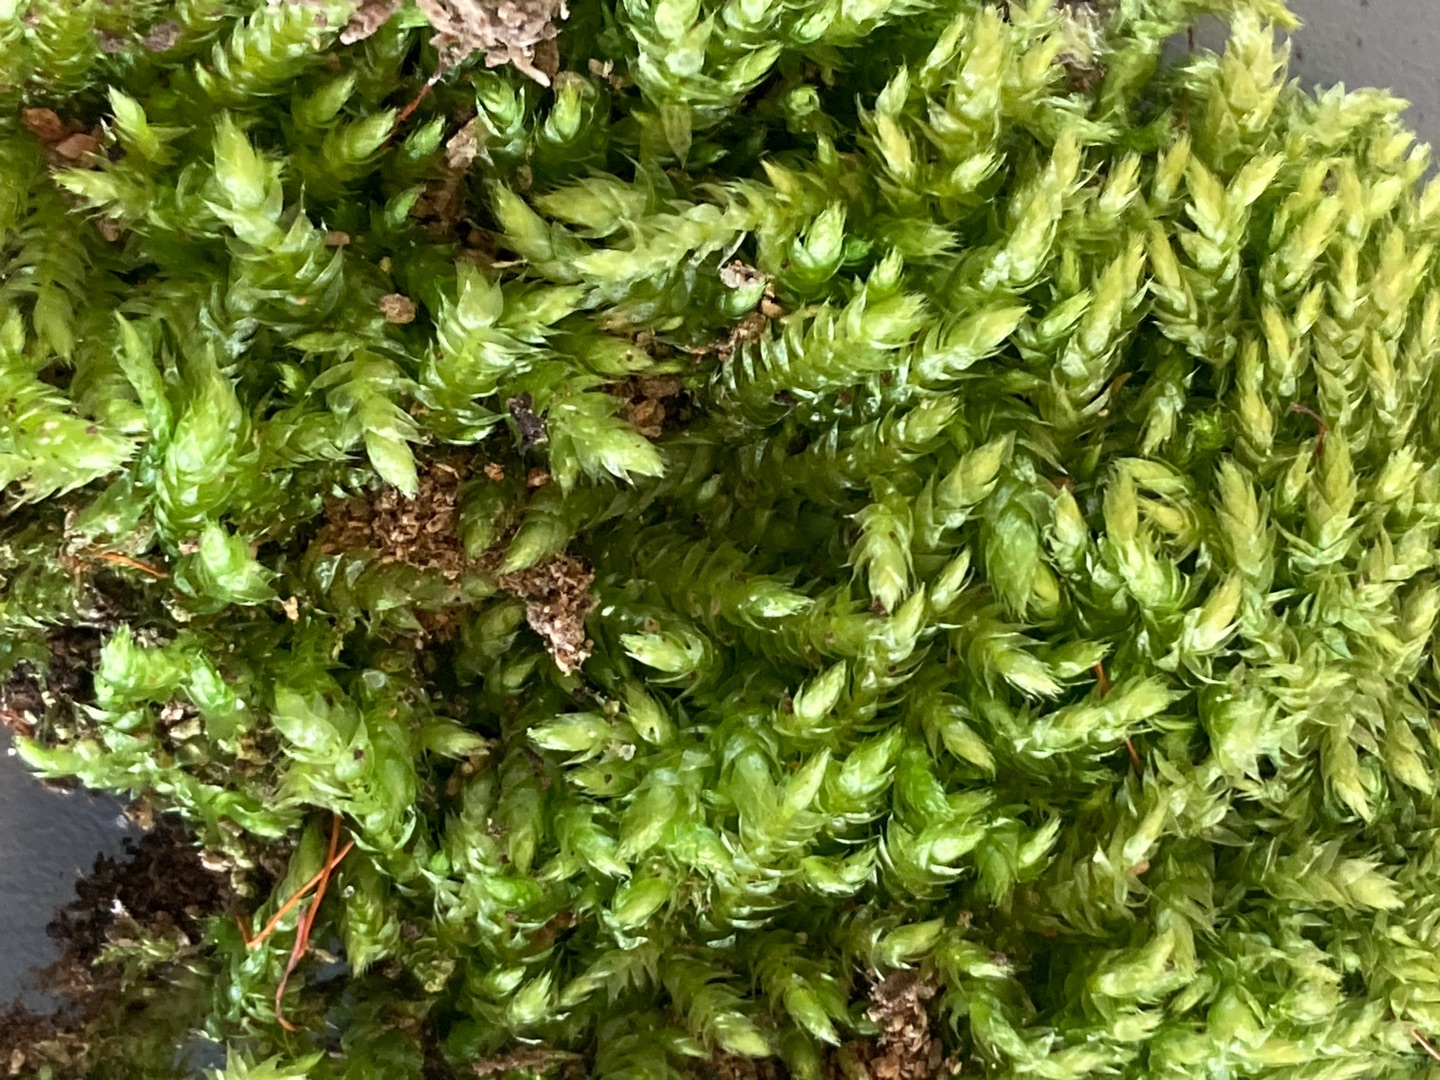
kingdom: Plantae
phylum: Bryophyta
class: Bryopsida
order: Hypnales
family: Brachytheciaceae
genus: Brachythecium
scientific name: Brachythecium rutabulum
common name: Almindelig kortkapsel
